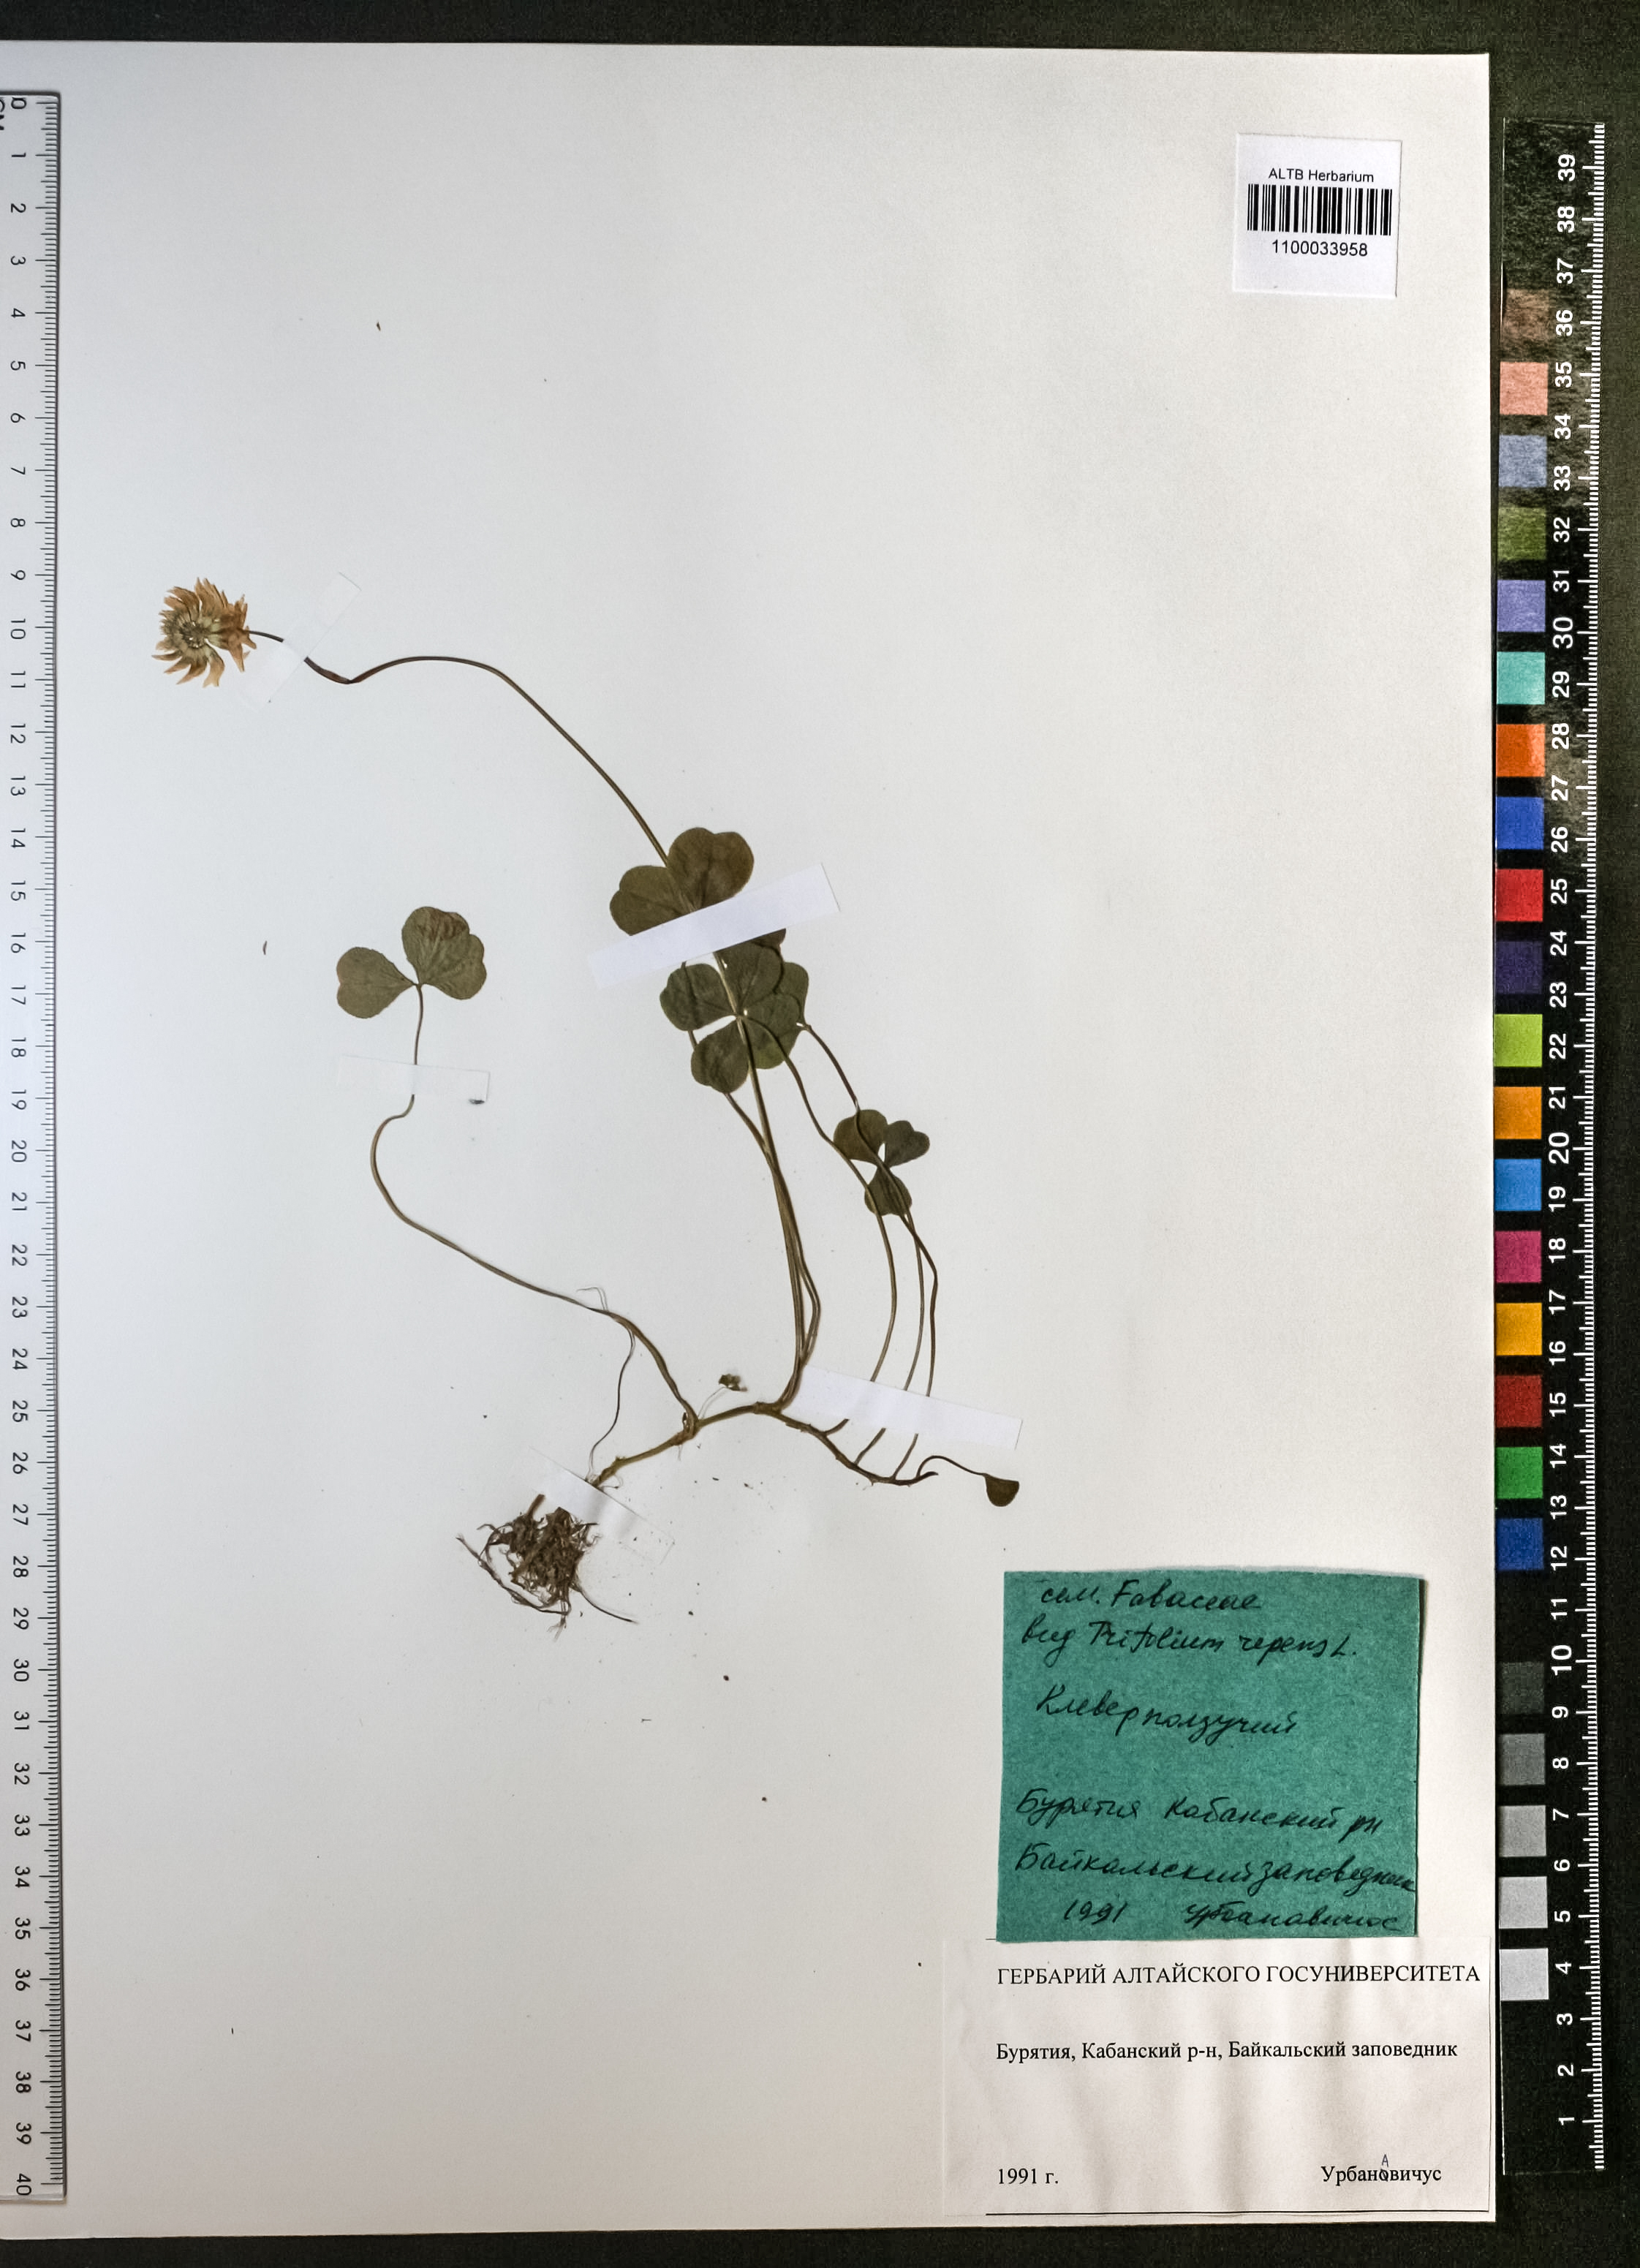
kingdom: Plantae
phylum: Tracheophyta
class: Magnoliopsida
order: Fabales
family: Fabaceae
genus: Trifolium
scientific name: Trifolium repens
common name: White clover
